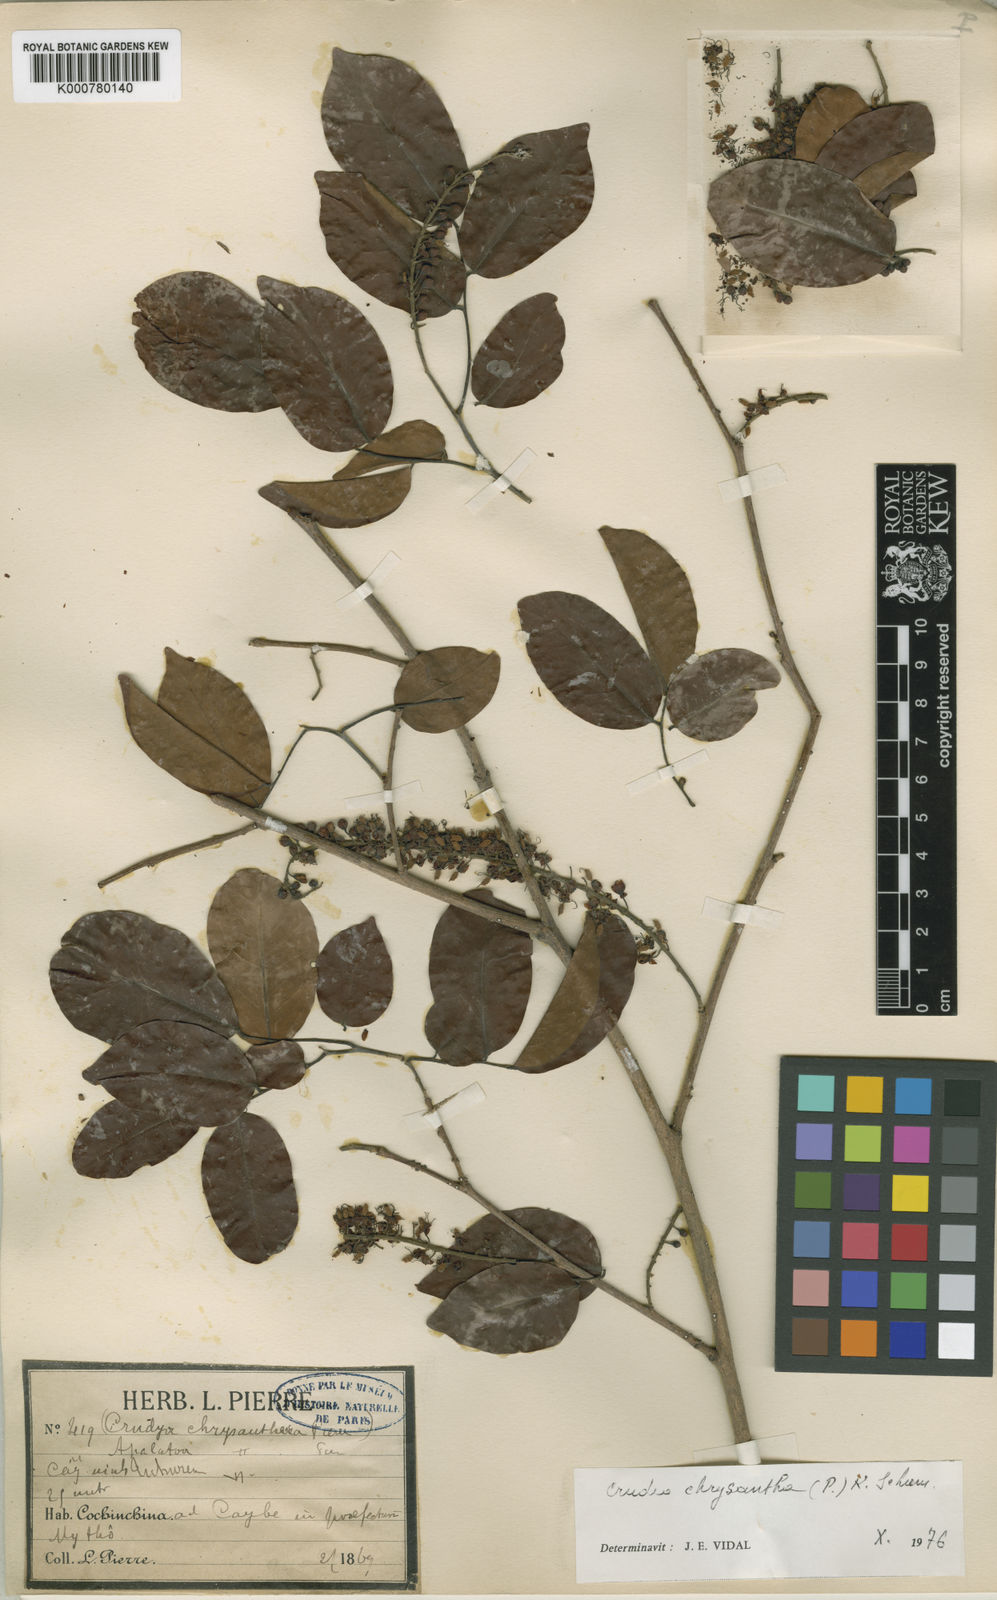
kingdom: Plantae
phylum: Tracheophyta
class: Magnoliopsida
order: Fabales
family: Fabaceae
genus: Crudia
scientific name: Crudia zeylanica
